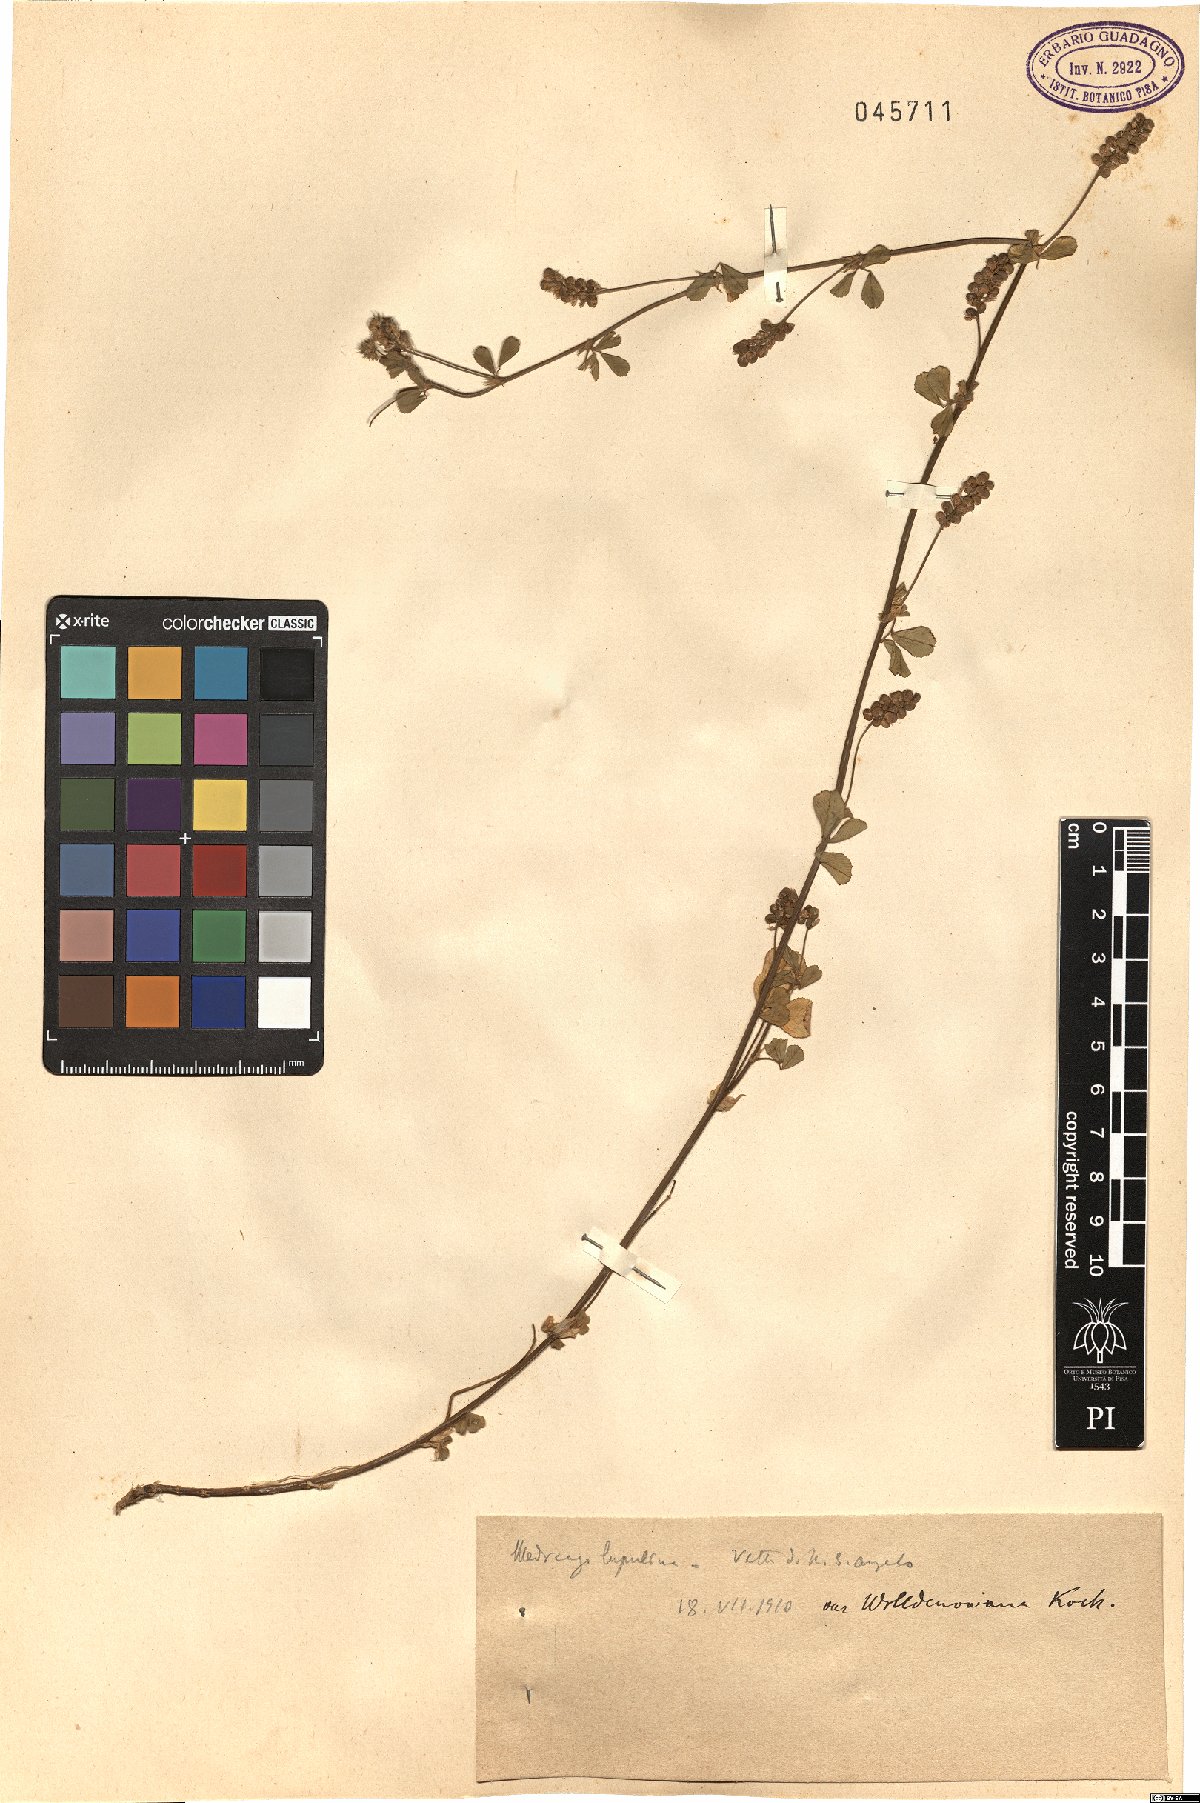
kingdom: Plantae
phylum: Tracheophyta
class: Magnoliopsida
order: Fabales
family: Fabaceae
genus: Medicago
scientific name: Medicago lupulina
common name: Black medick
